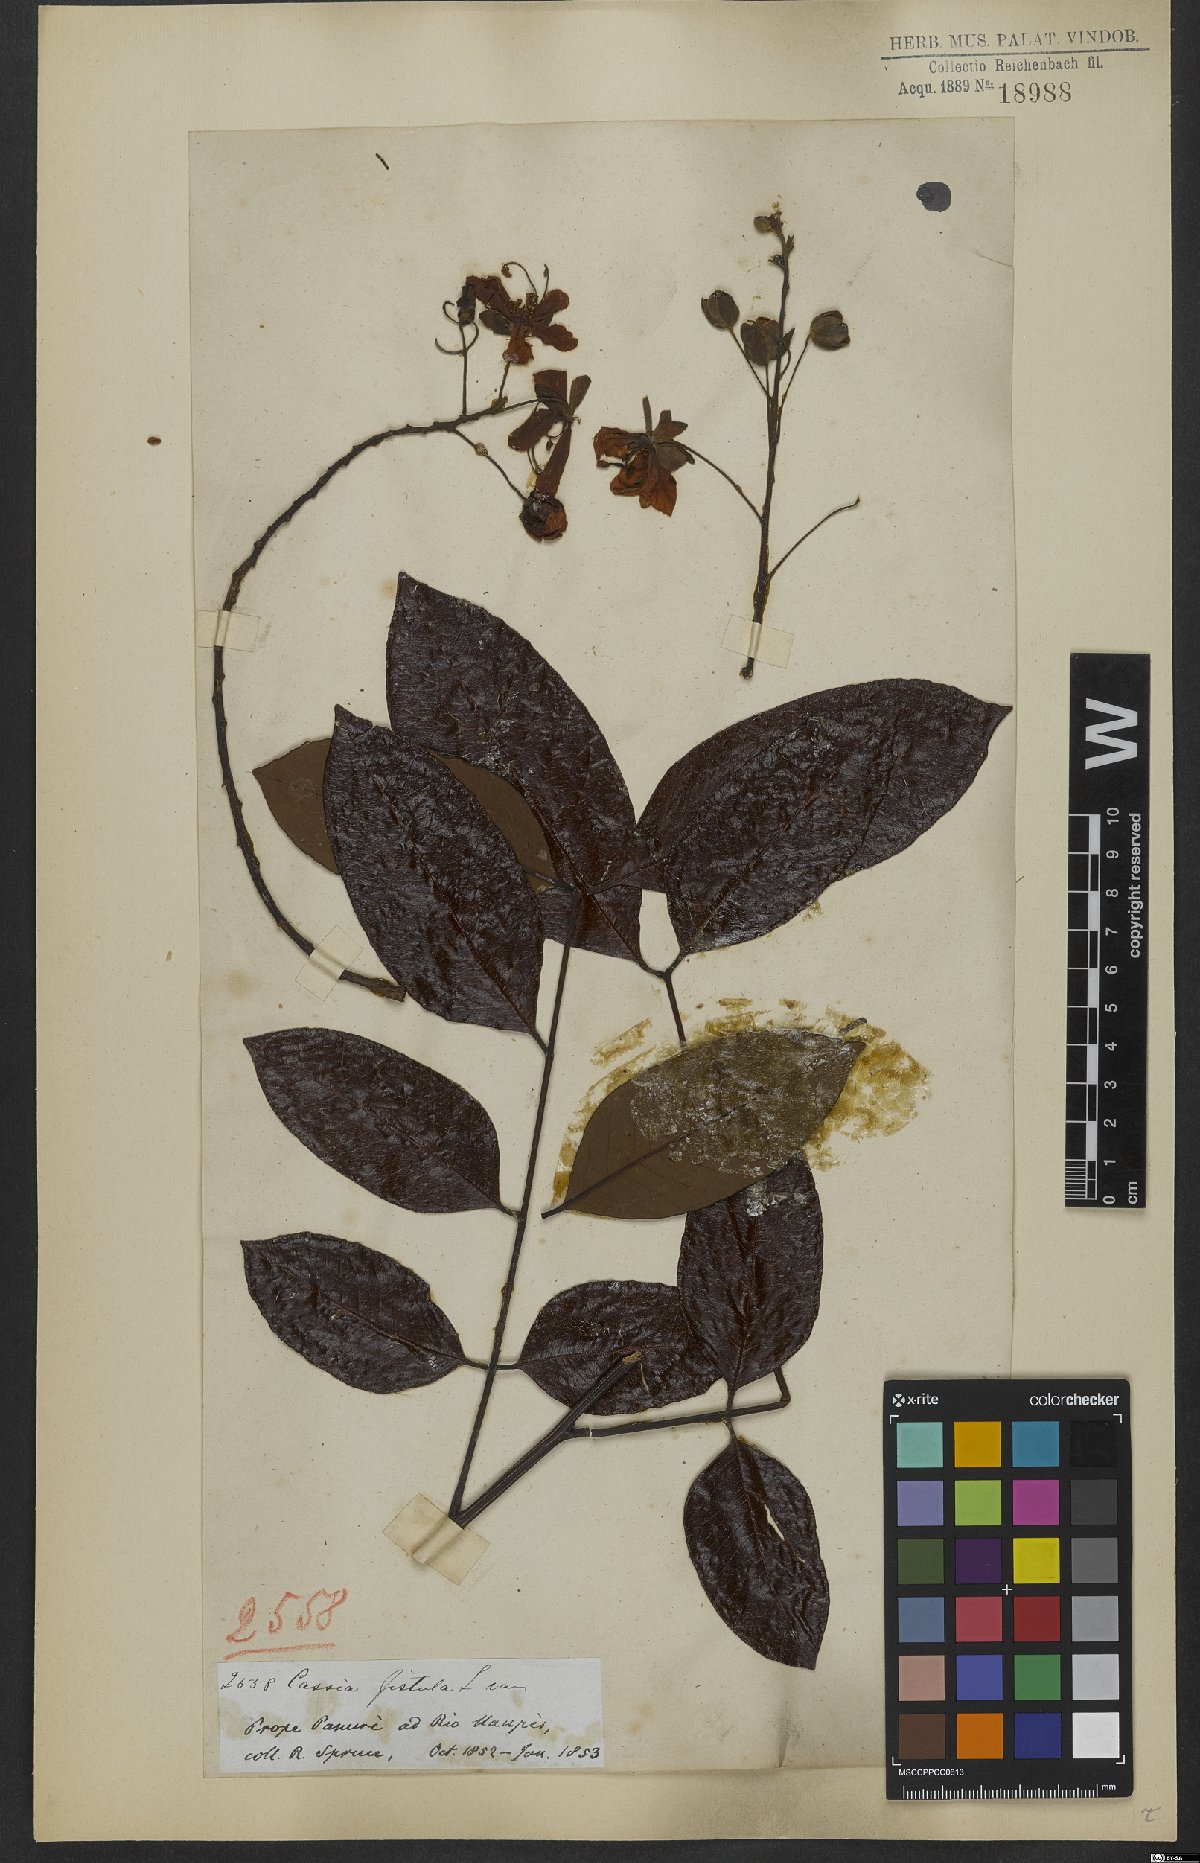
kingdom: Plantae
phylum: Tracheophyta
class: Magnoliopsida
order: Fabales
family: Fabaceae
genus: Cassia
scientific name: Cassia spruceana
